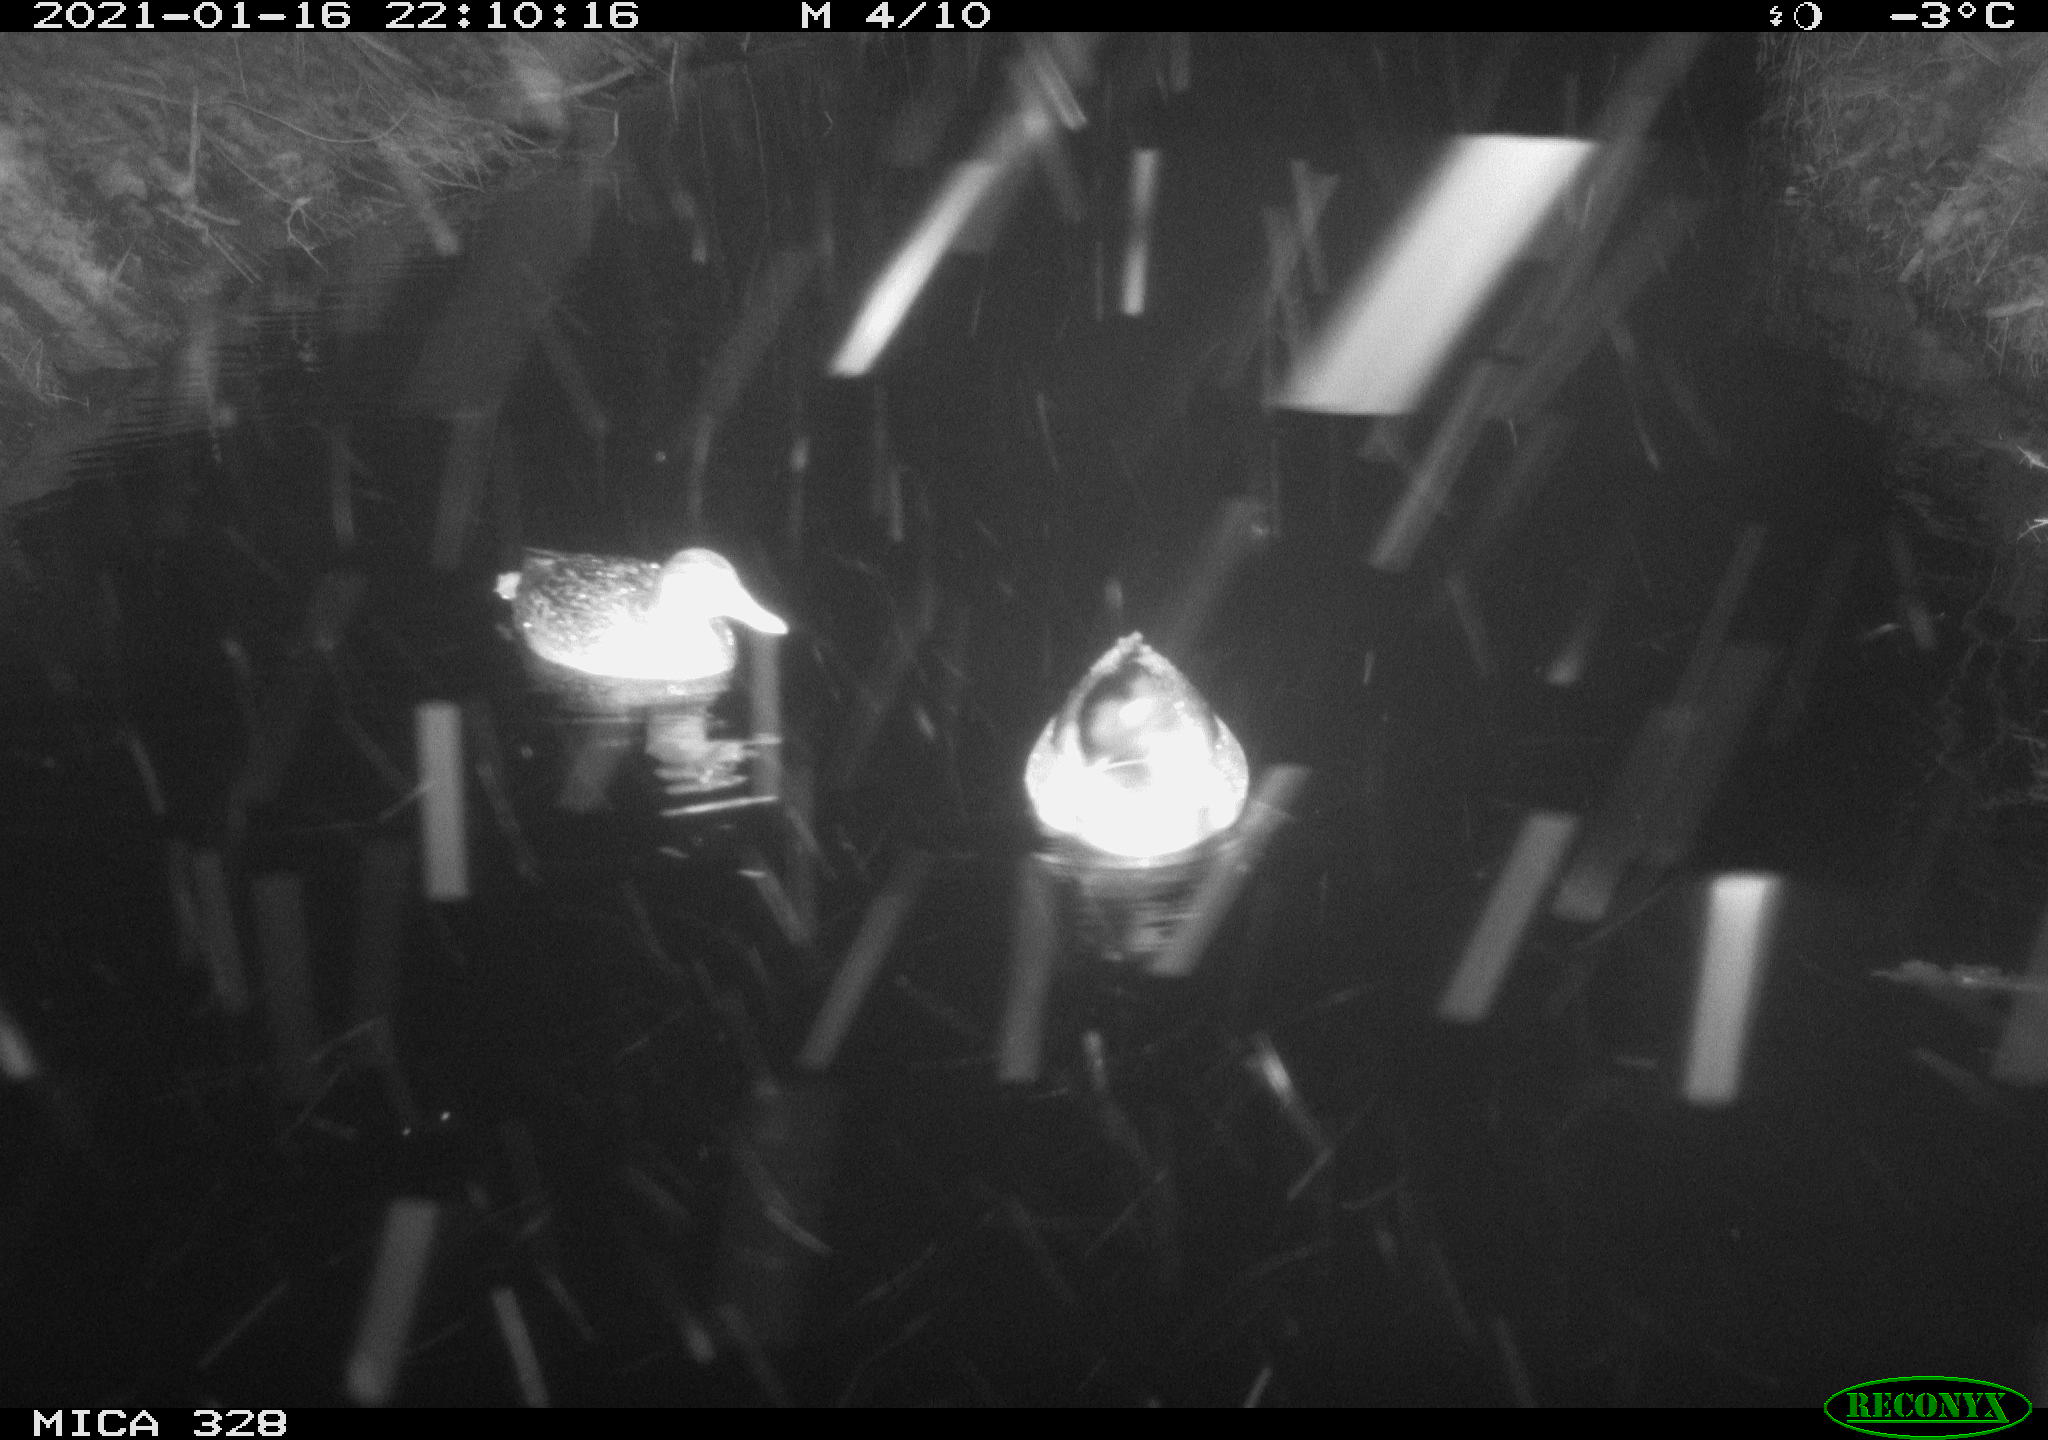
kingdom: Animalia
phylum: Chordata
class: Aves
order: Anseriformes
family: Anatidae
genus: Anas
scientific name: Anas platyrhynchos
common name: Mallard
